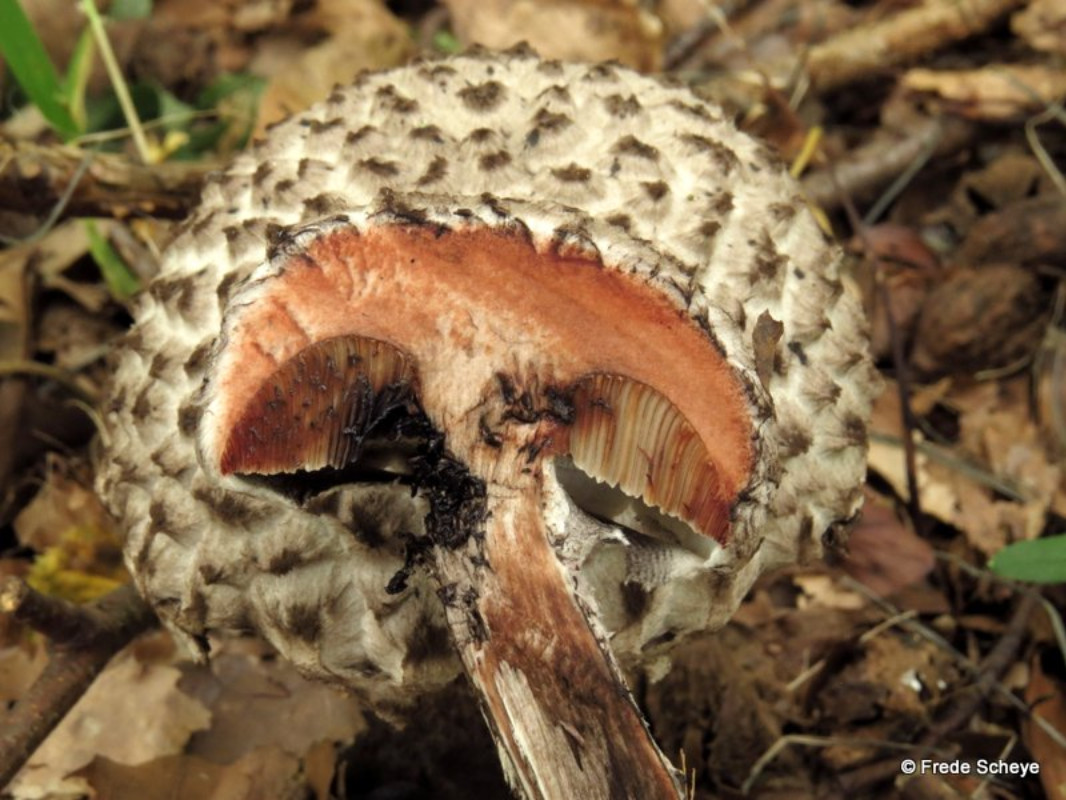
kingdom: Fungi
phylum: Basidiomycota
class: Agaricomycetes
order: Boletales
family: Boletaceae
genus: Strobilomyces
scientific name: Strobilomyces strobilaceus
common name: koglerørhat
